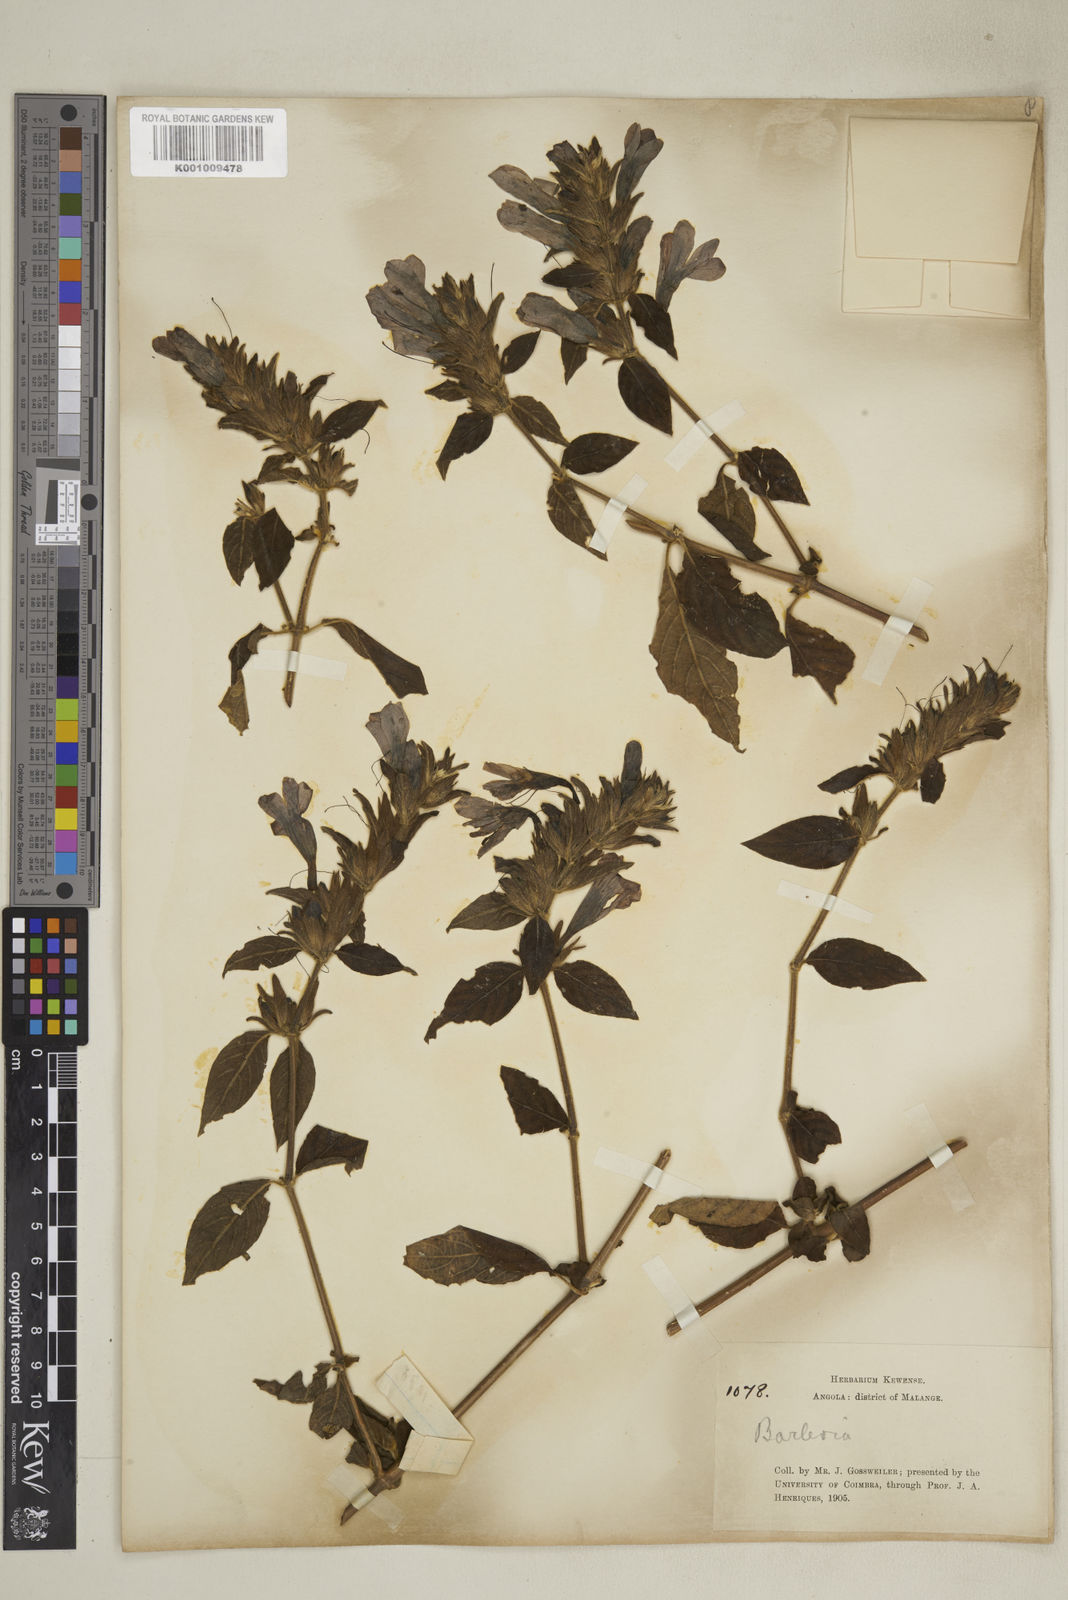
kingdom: Plantae
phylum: Tracheophyta
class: Magnoliopsida
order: Lamiales
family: Acanthaceae
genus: Barleria
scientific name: Barleria villosa
